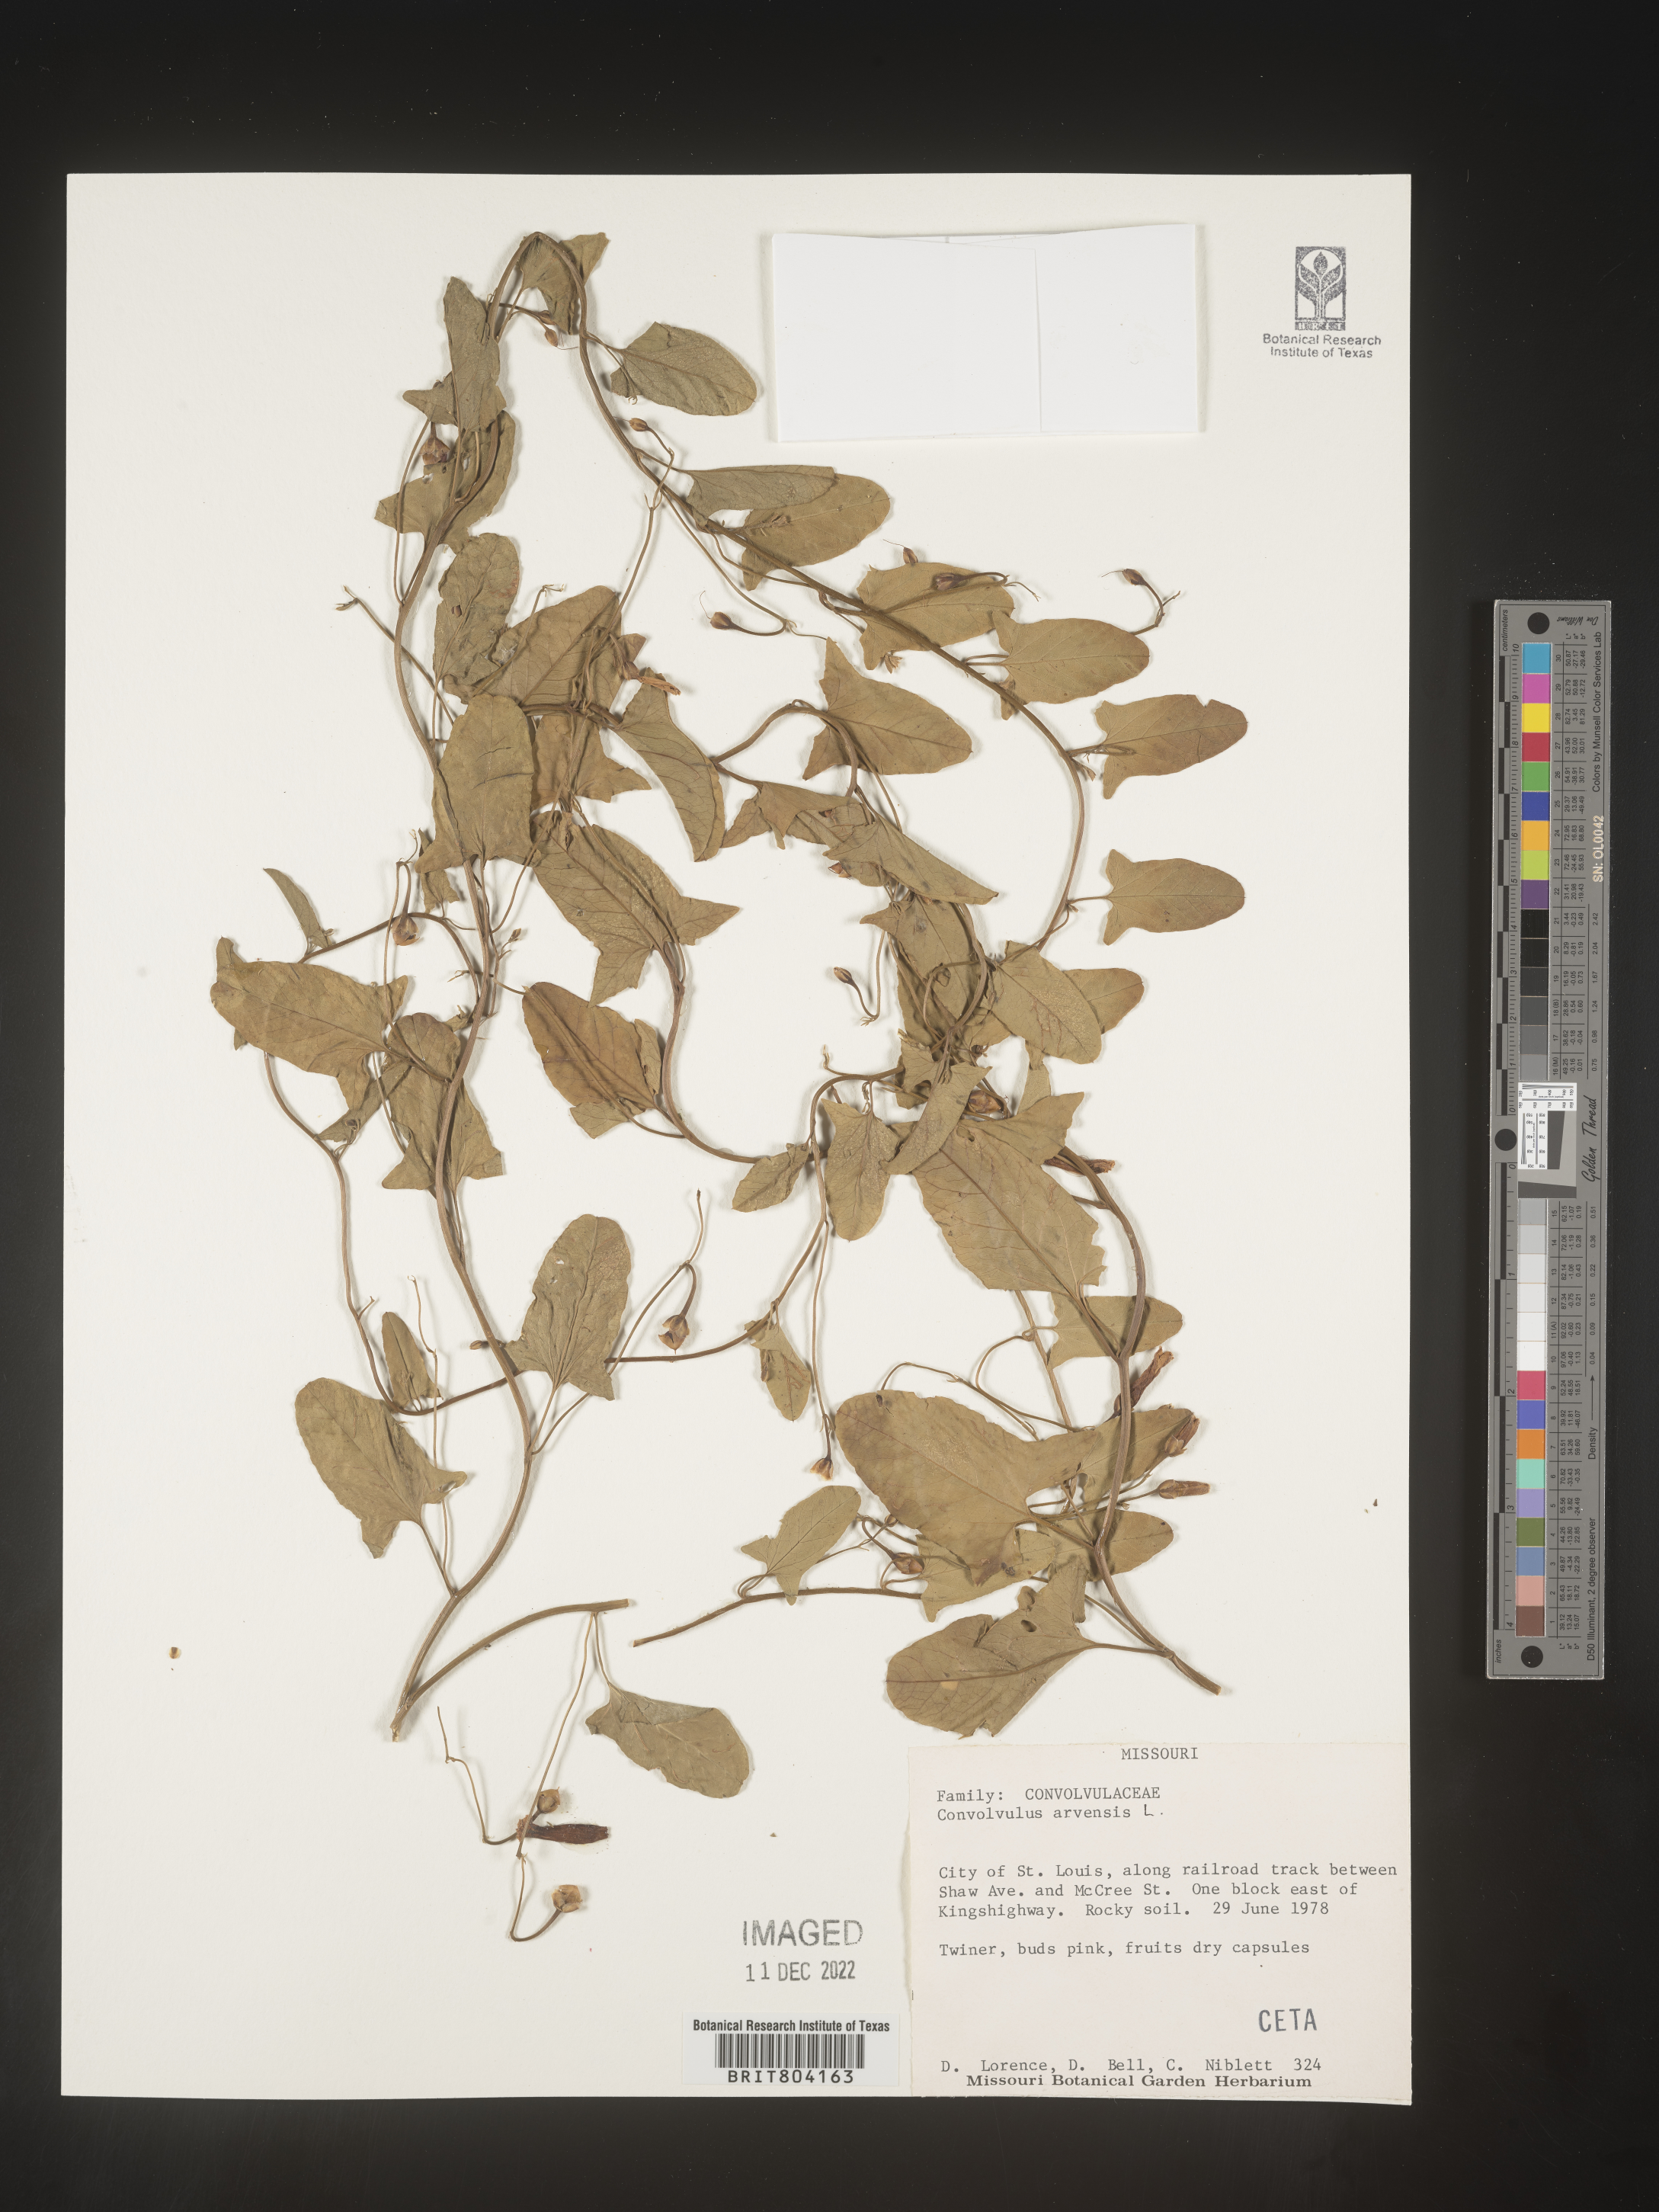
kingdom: Plantae
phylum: Tracheophyta
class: Magnoliopsida
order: Solanales
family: Convolvulaceae
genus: Convolvulus
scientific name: Convolvulus arvensis
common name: Field bindweed
